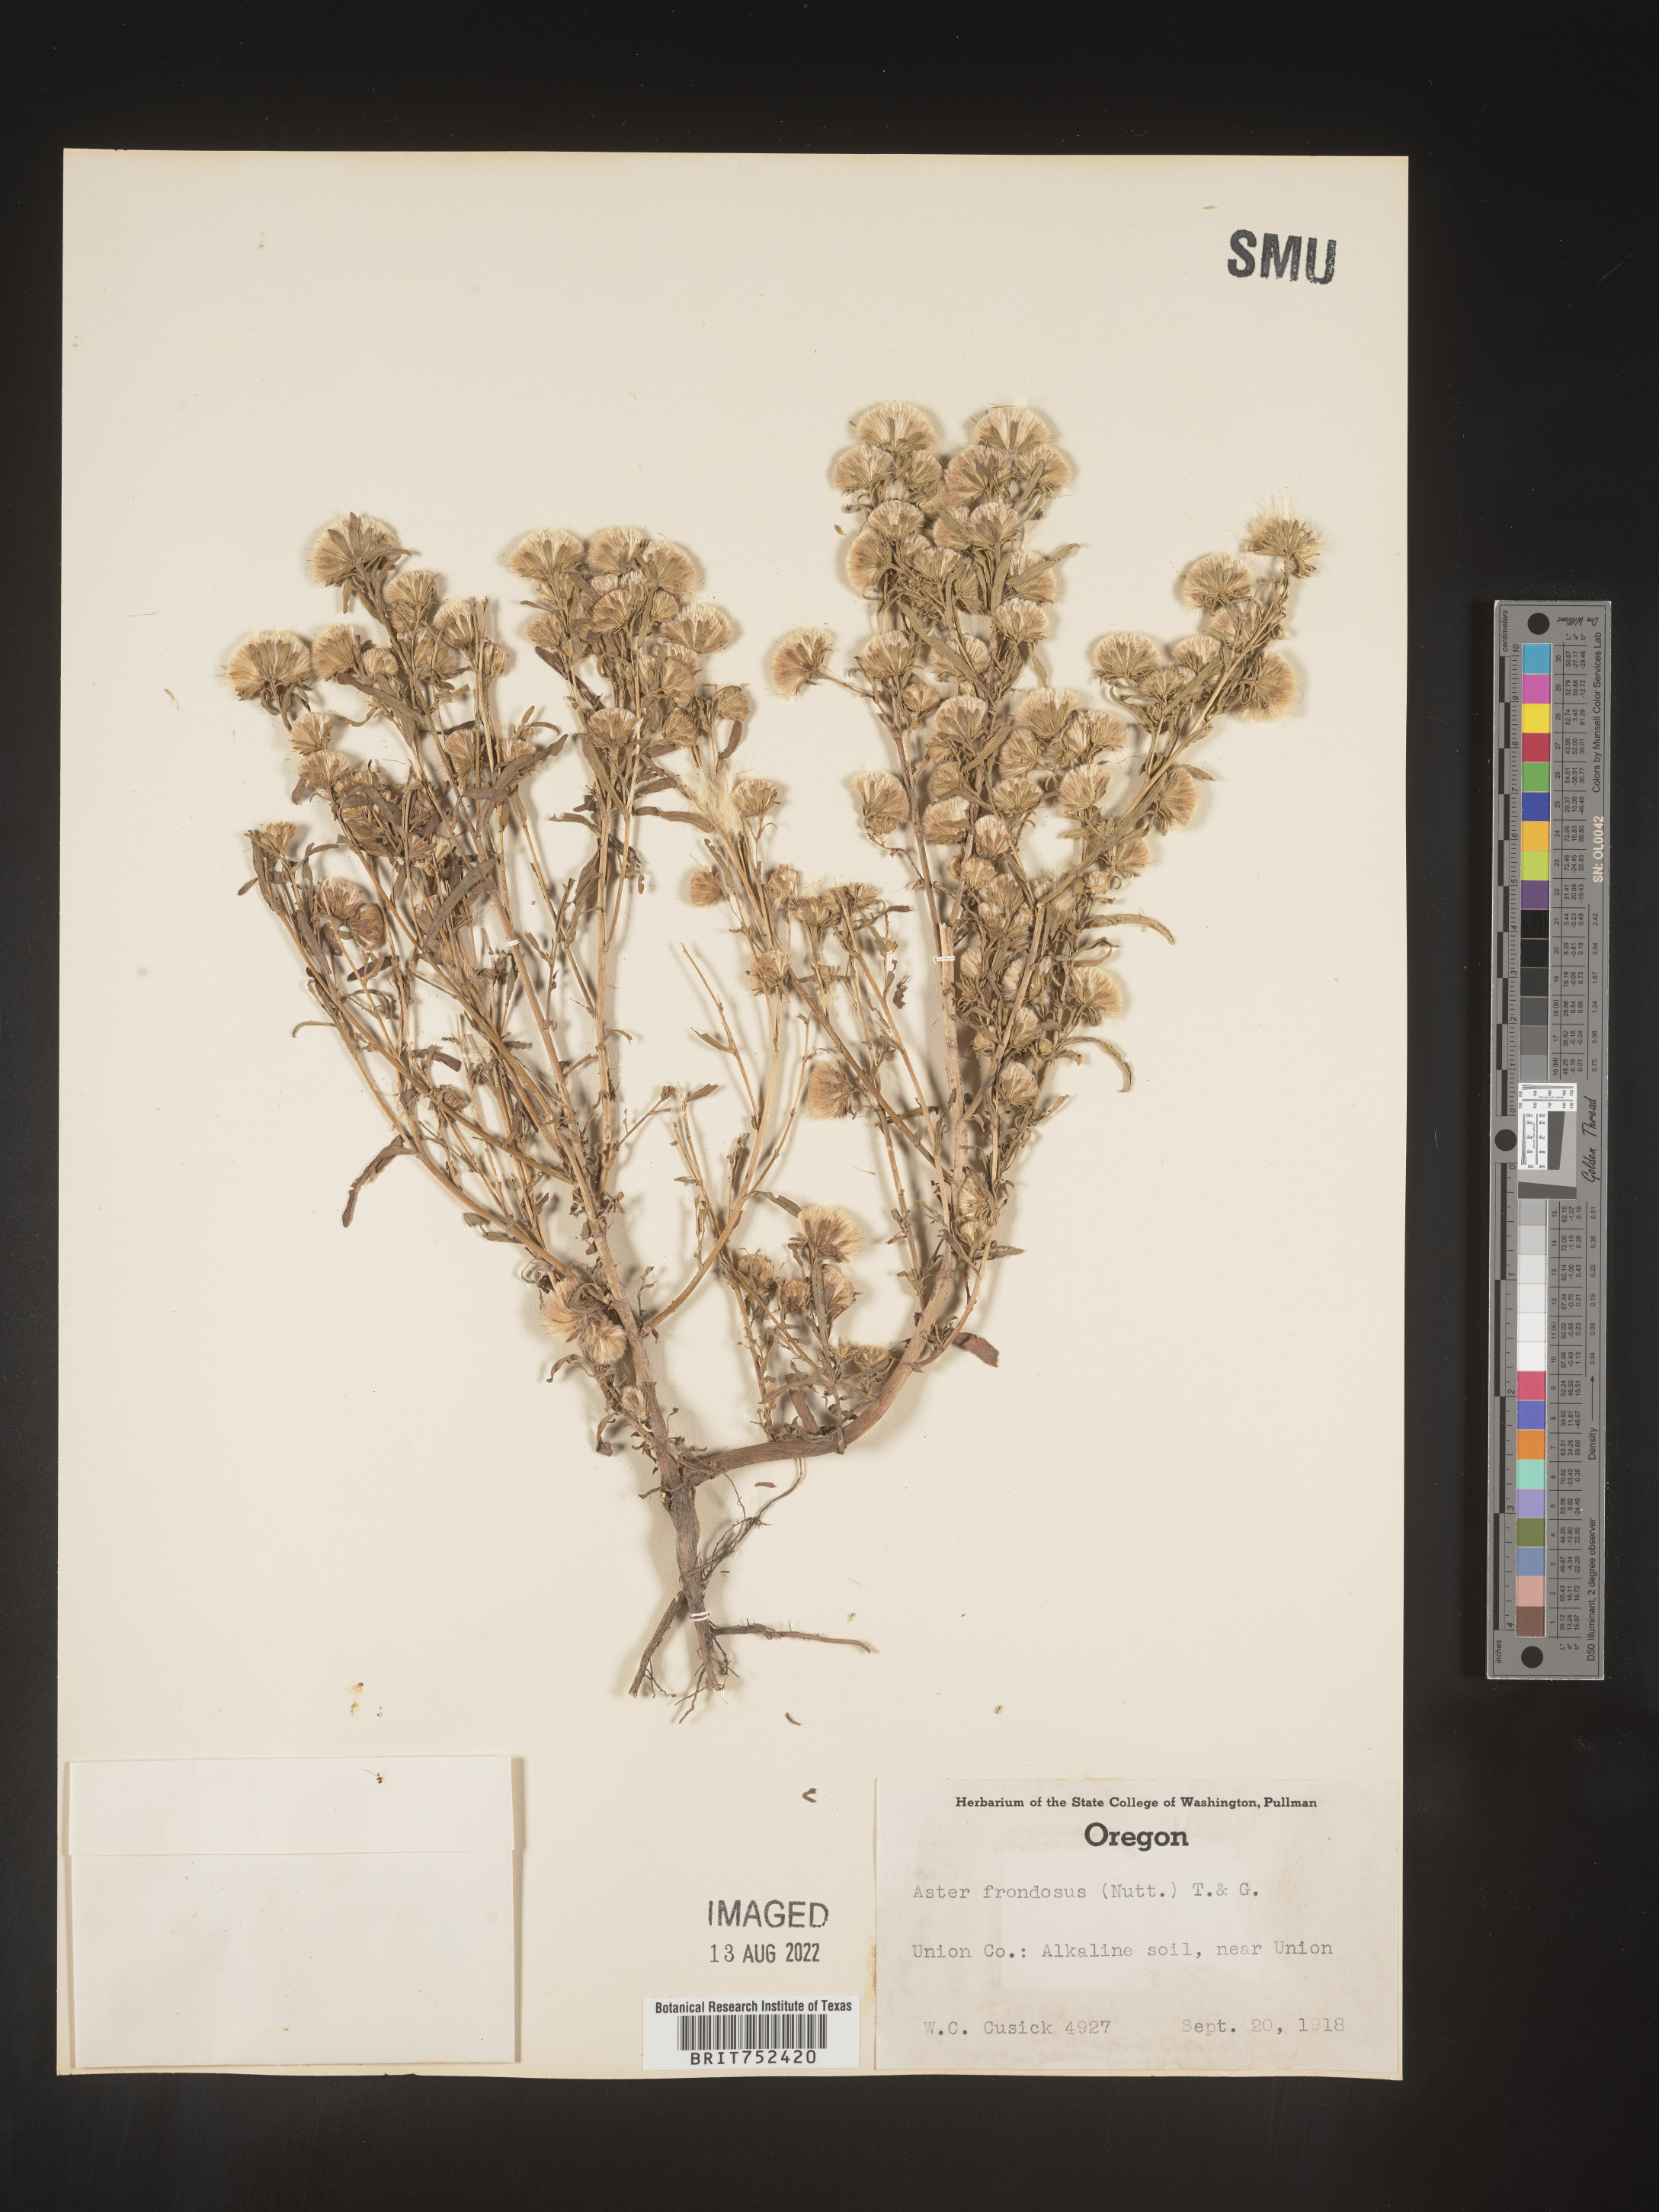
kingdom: Plantae
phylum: Tracheophyta
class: Magnoliopsida
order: Asterales
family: Asteraceae
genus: Symphyotrichum
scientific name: Symphyotrichum frondosum
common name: Leafy aster
